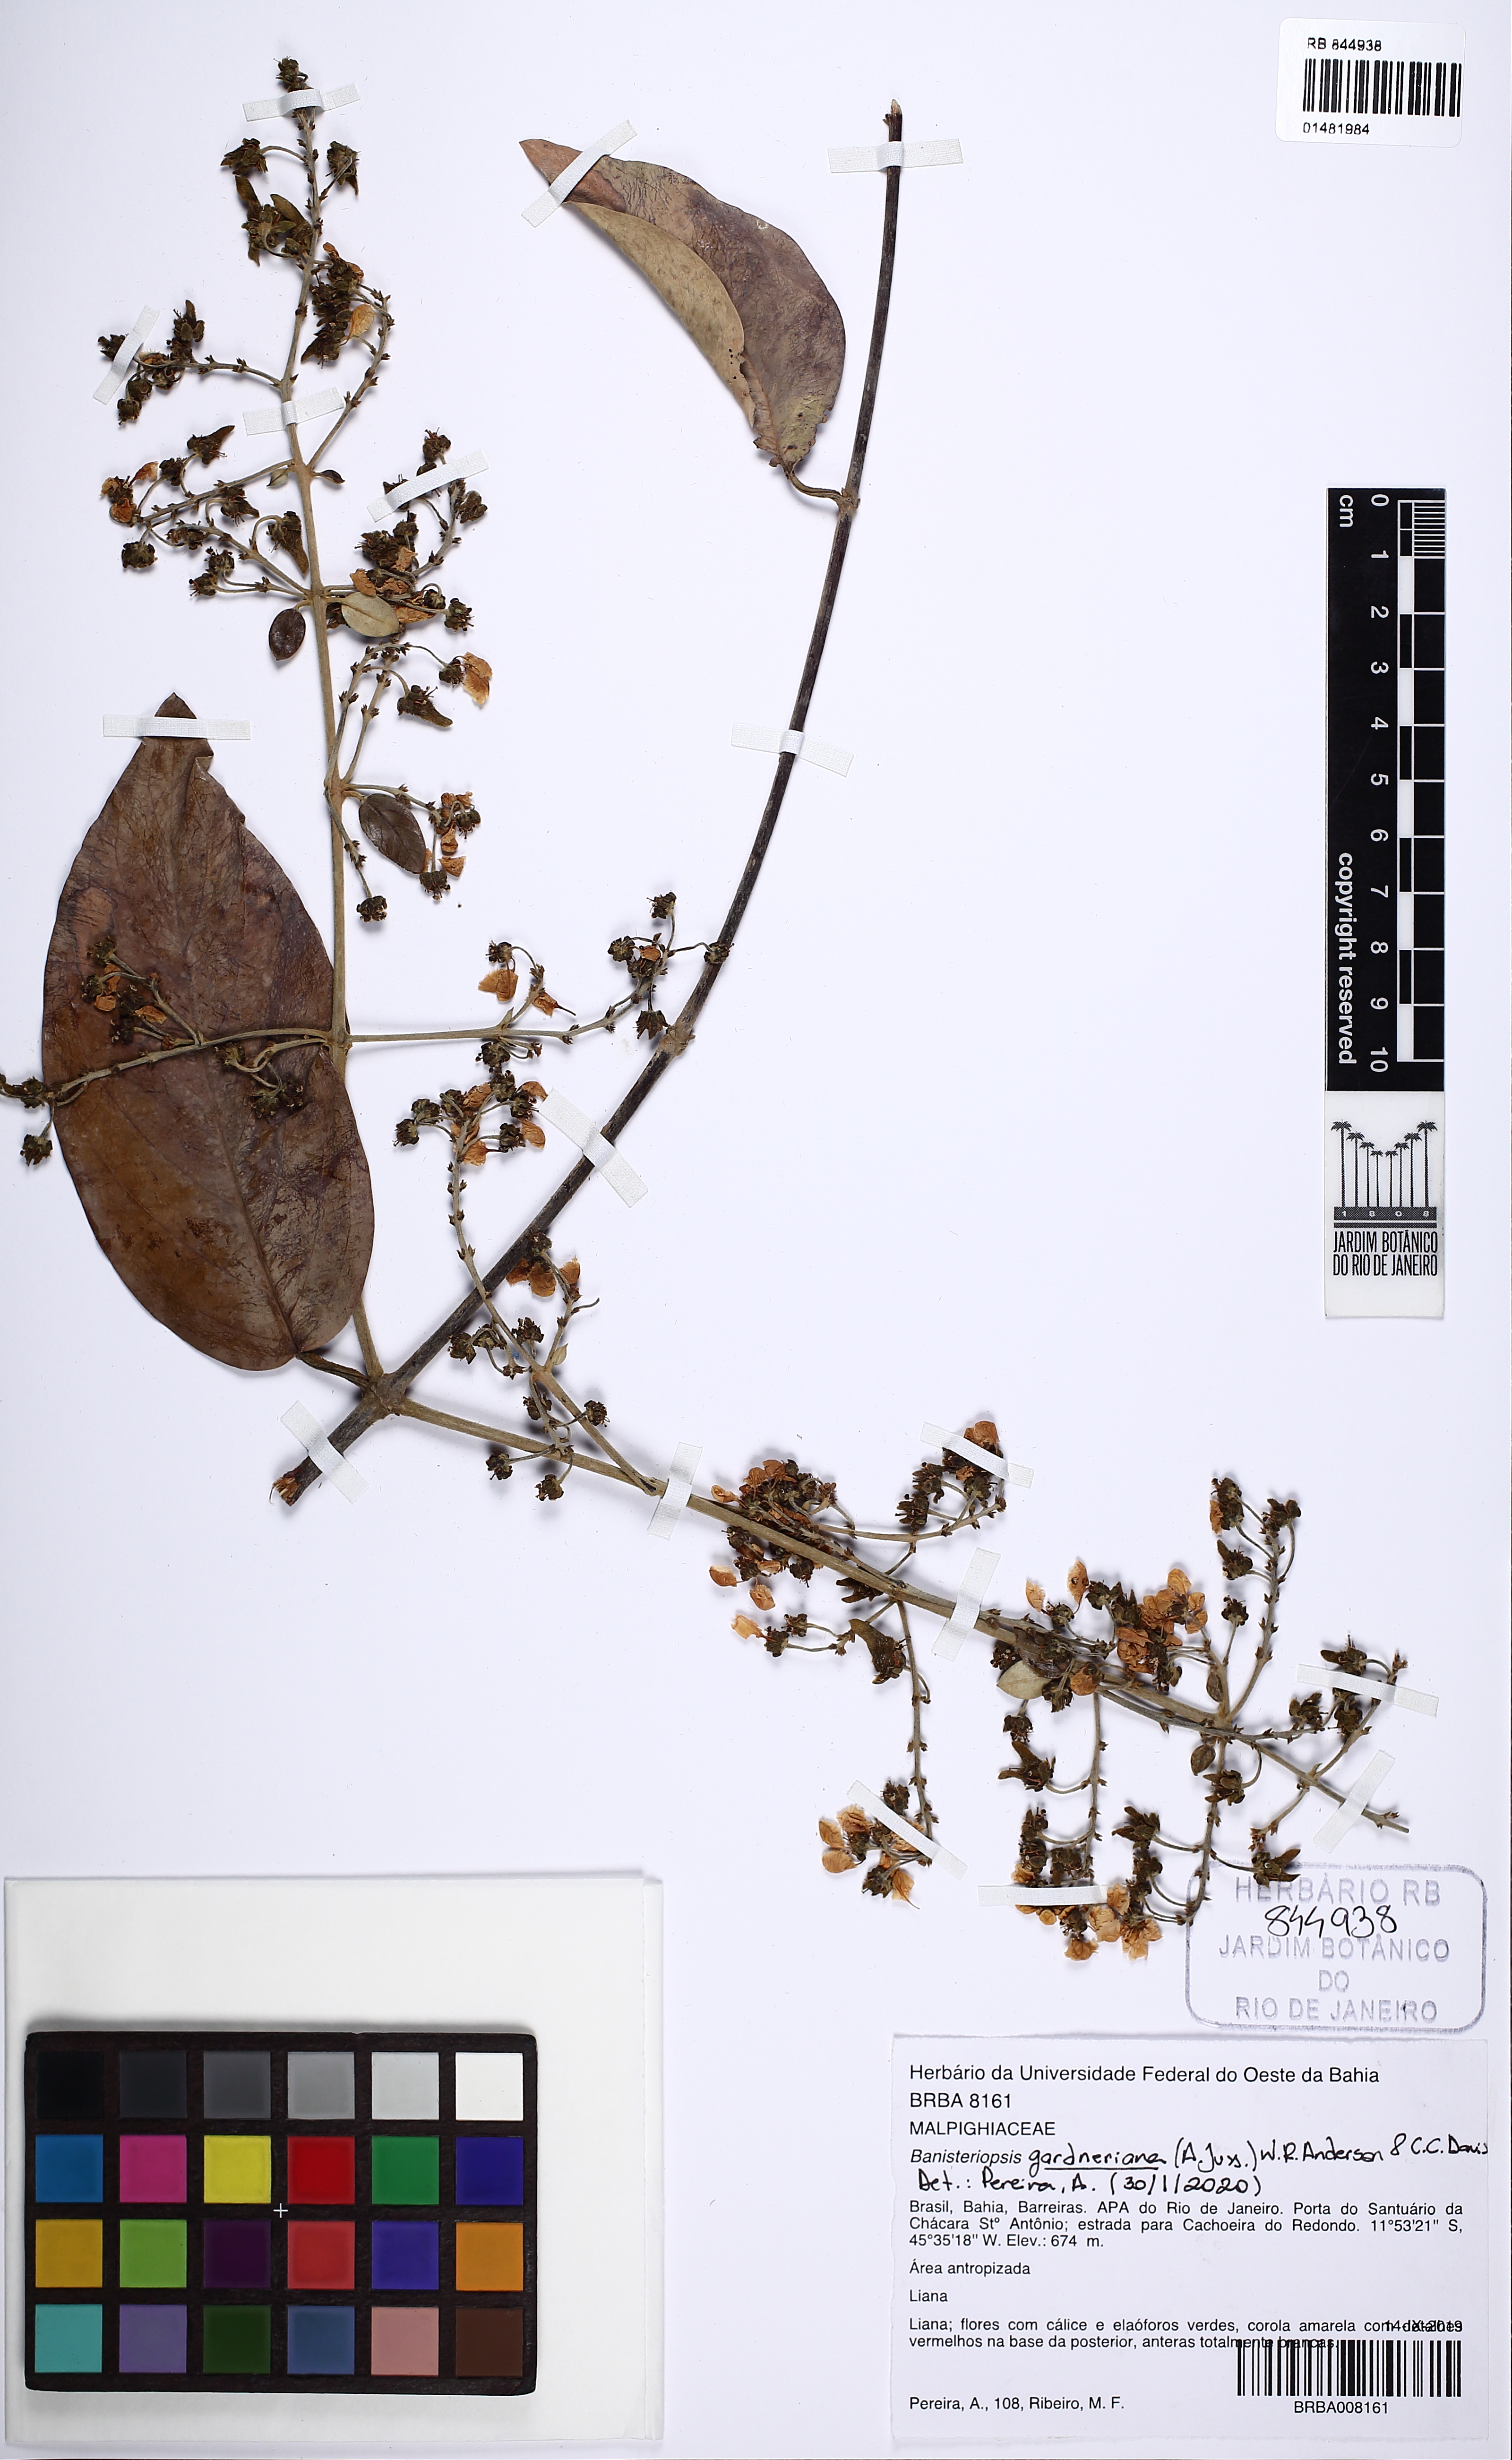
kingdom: Plantae
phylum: Tracheophyta
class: Magnoliopsida
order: Malpighiales
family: Malpighiaceae
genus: Banisteriopsis
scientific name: Banisteriopsis gardneriana
